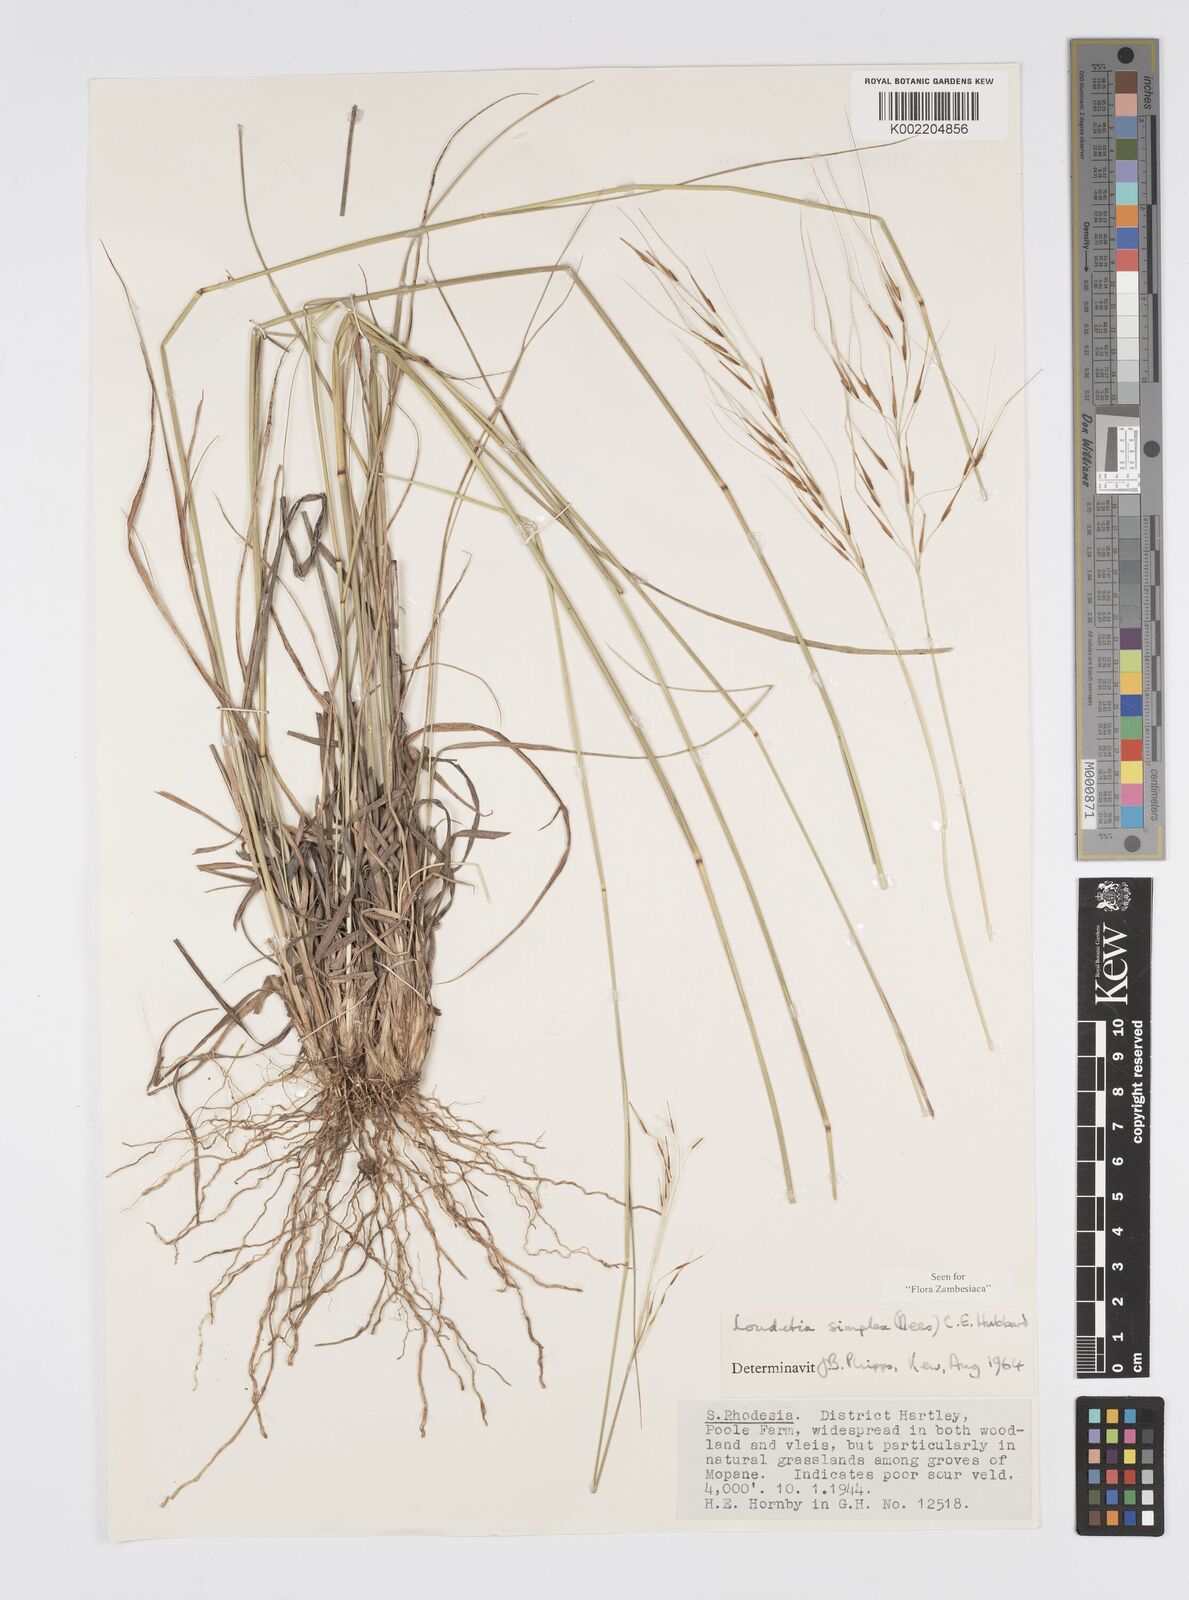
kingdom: Plantae
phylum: Tracheophyta
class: Liliopsida
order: Poales
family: Poaceae
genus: Loudetia
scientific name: Loudetia simplex
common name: Common russet grass
